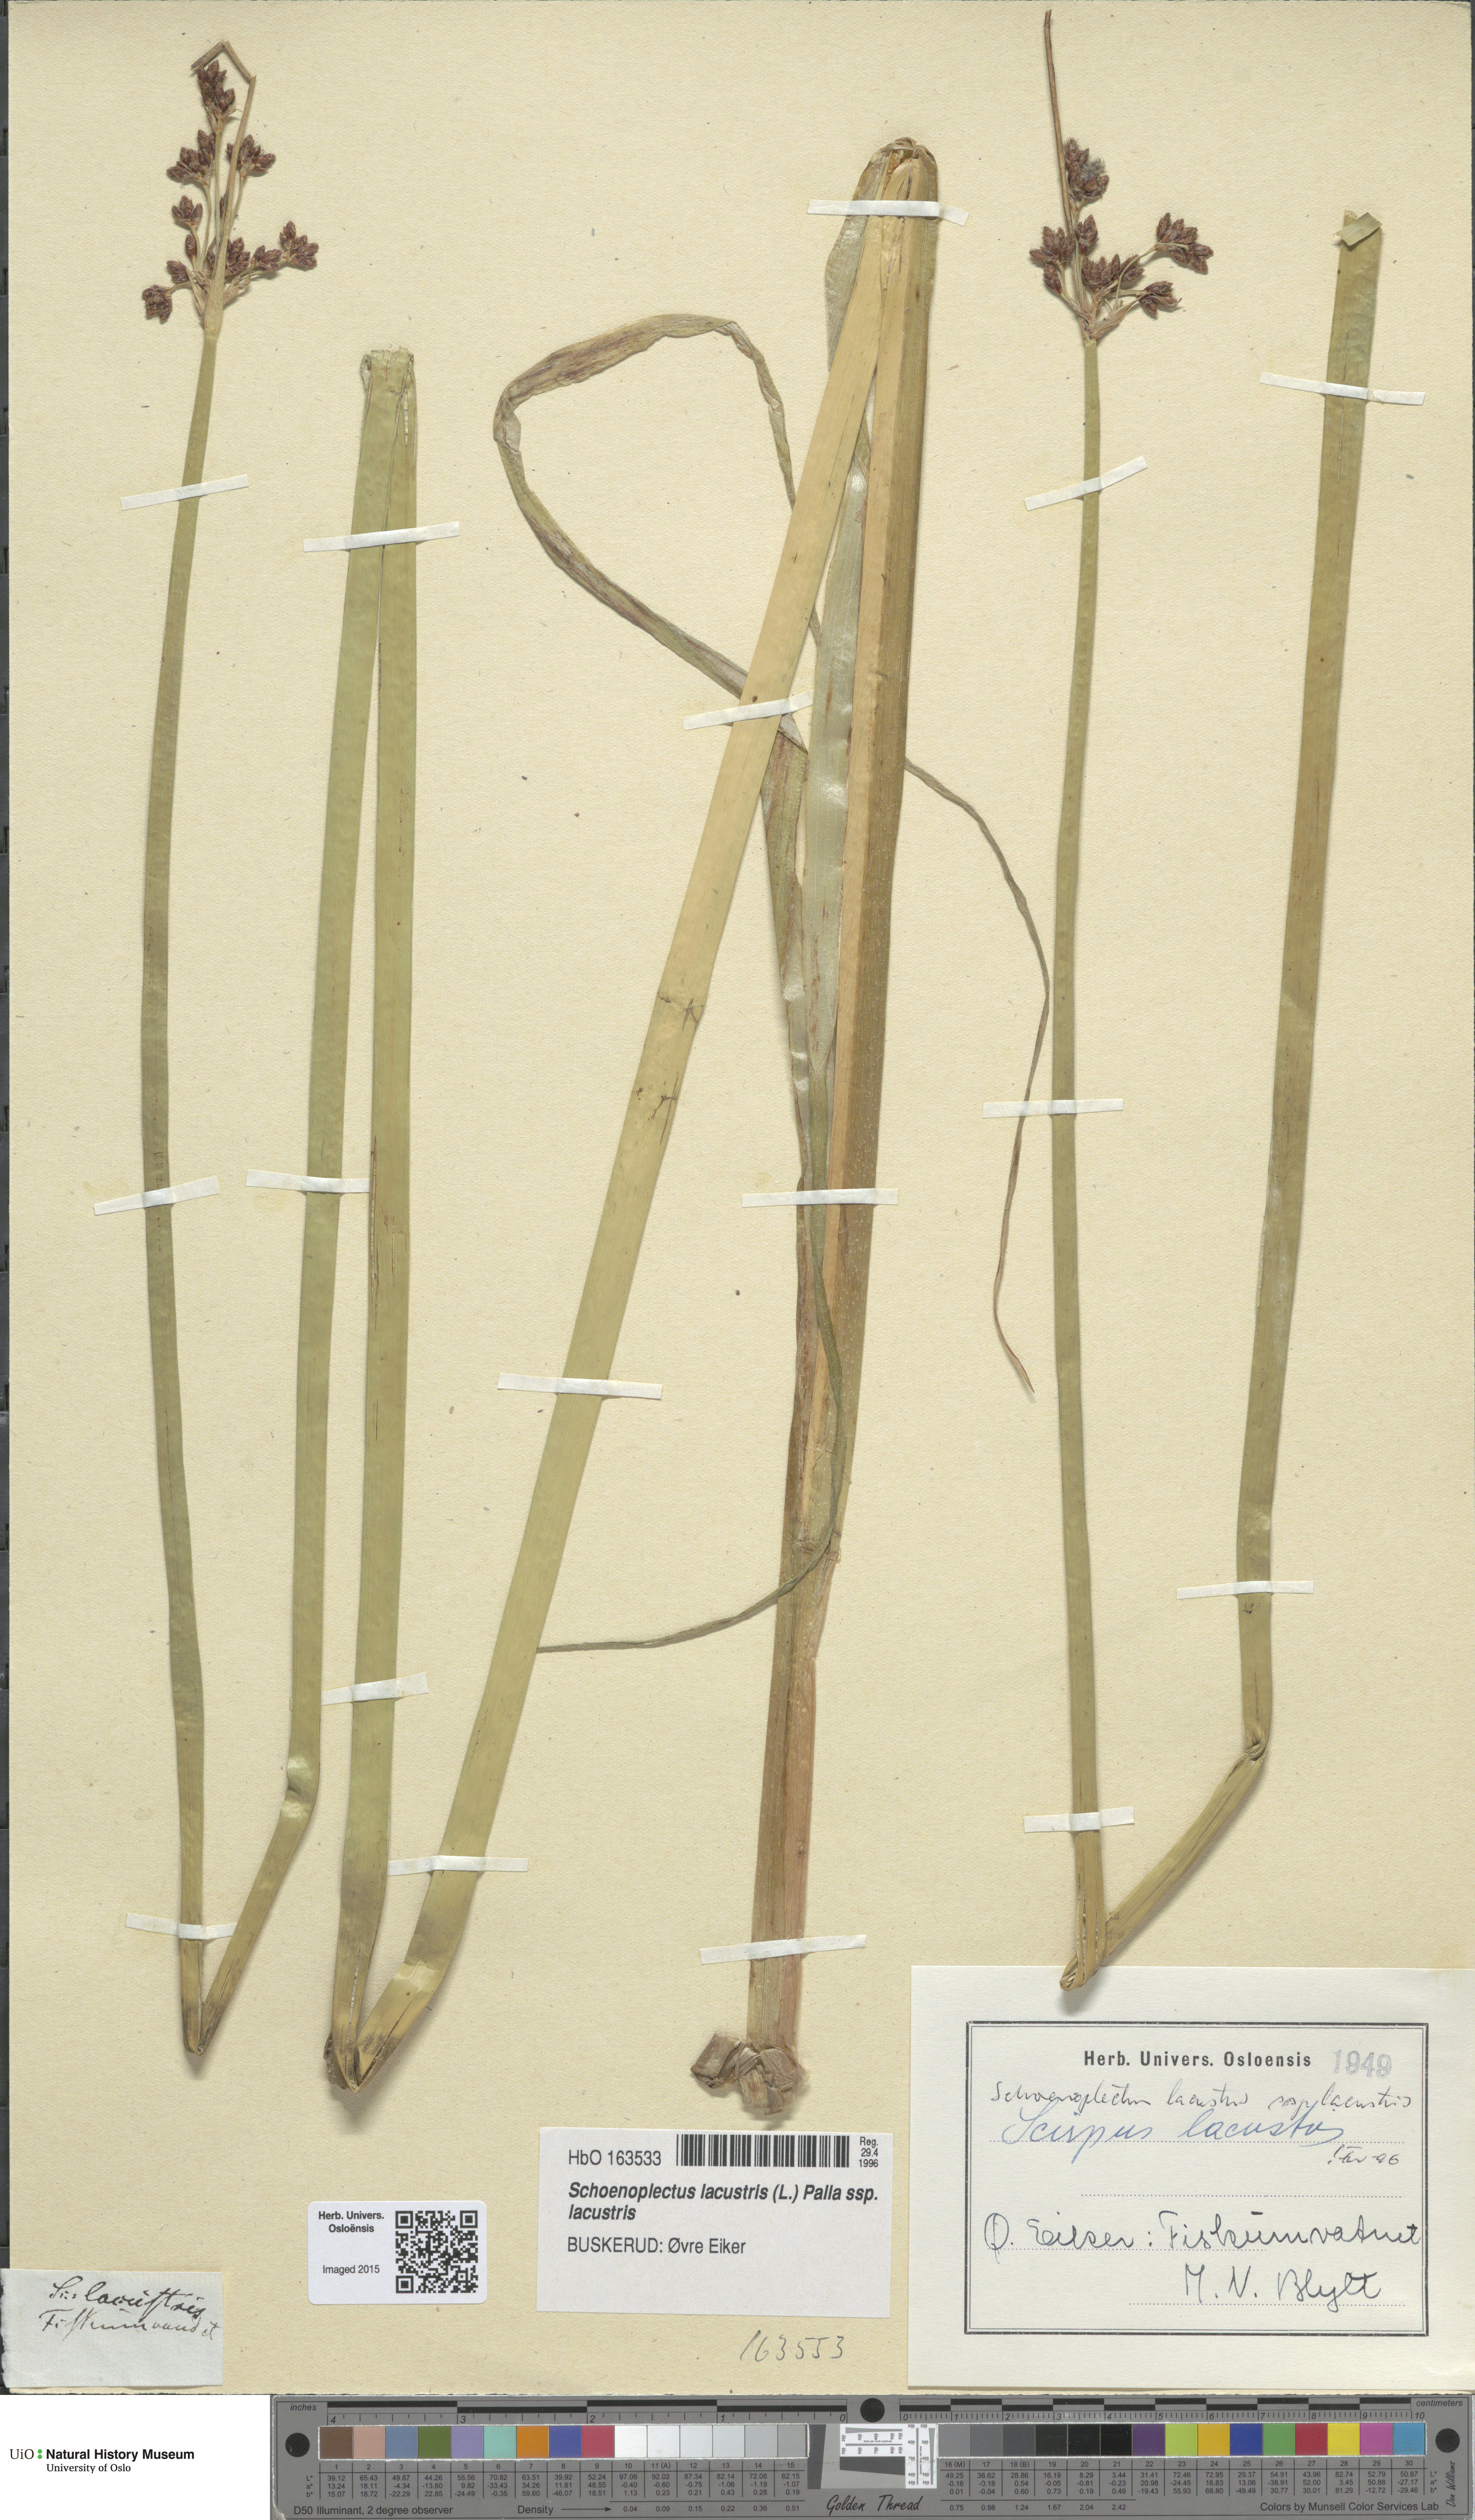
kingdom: Plantae
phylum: Tracheophyta
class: Liliopsida
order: Poales
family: Cyperaceae
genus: Schoenoplectus
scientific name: Schoenoplectus lacustris
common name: Common club-rush
